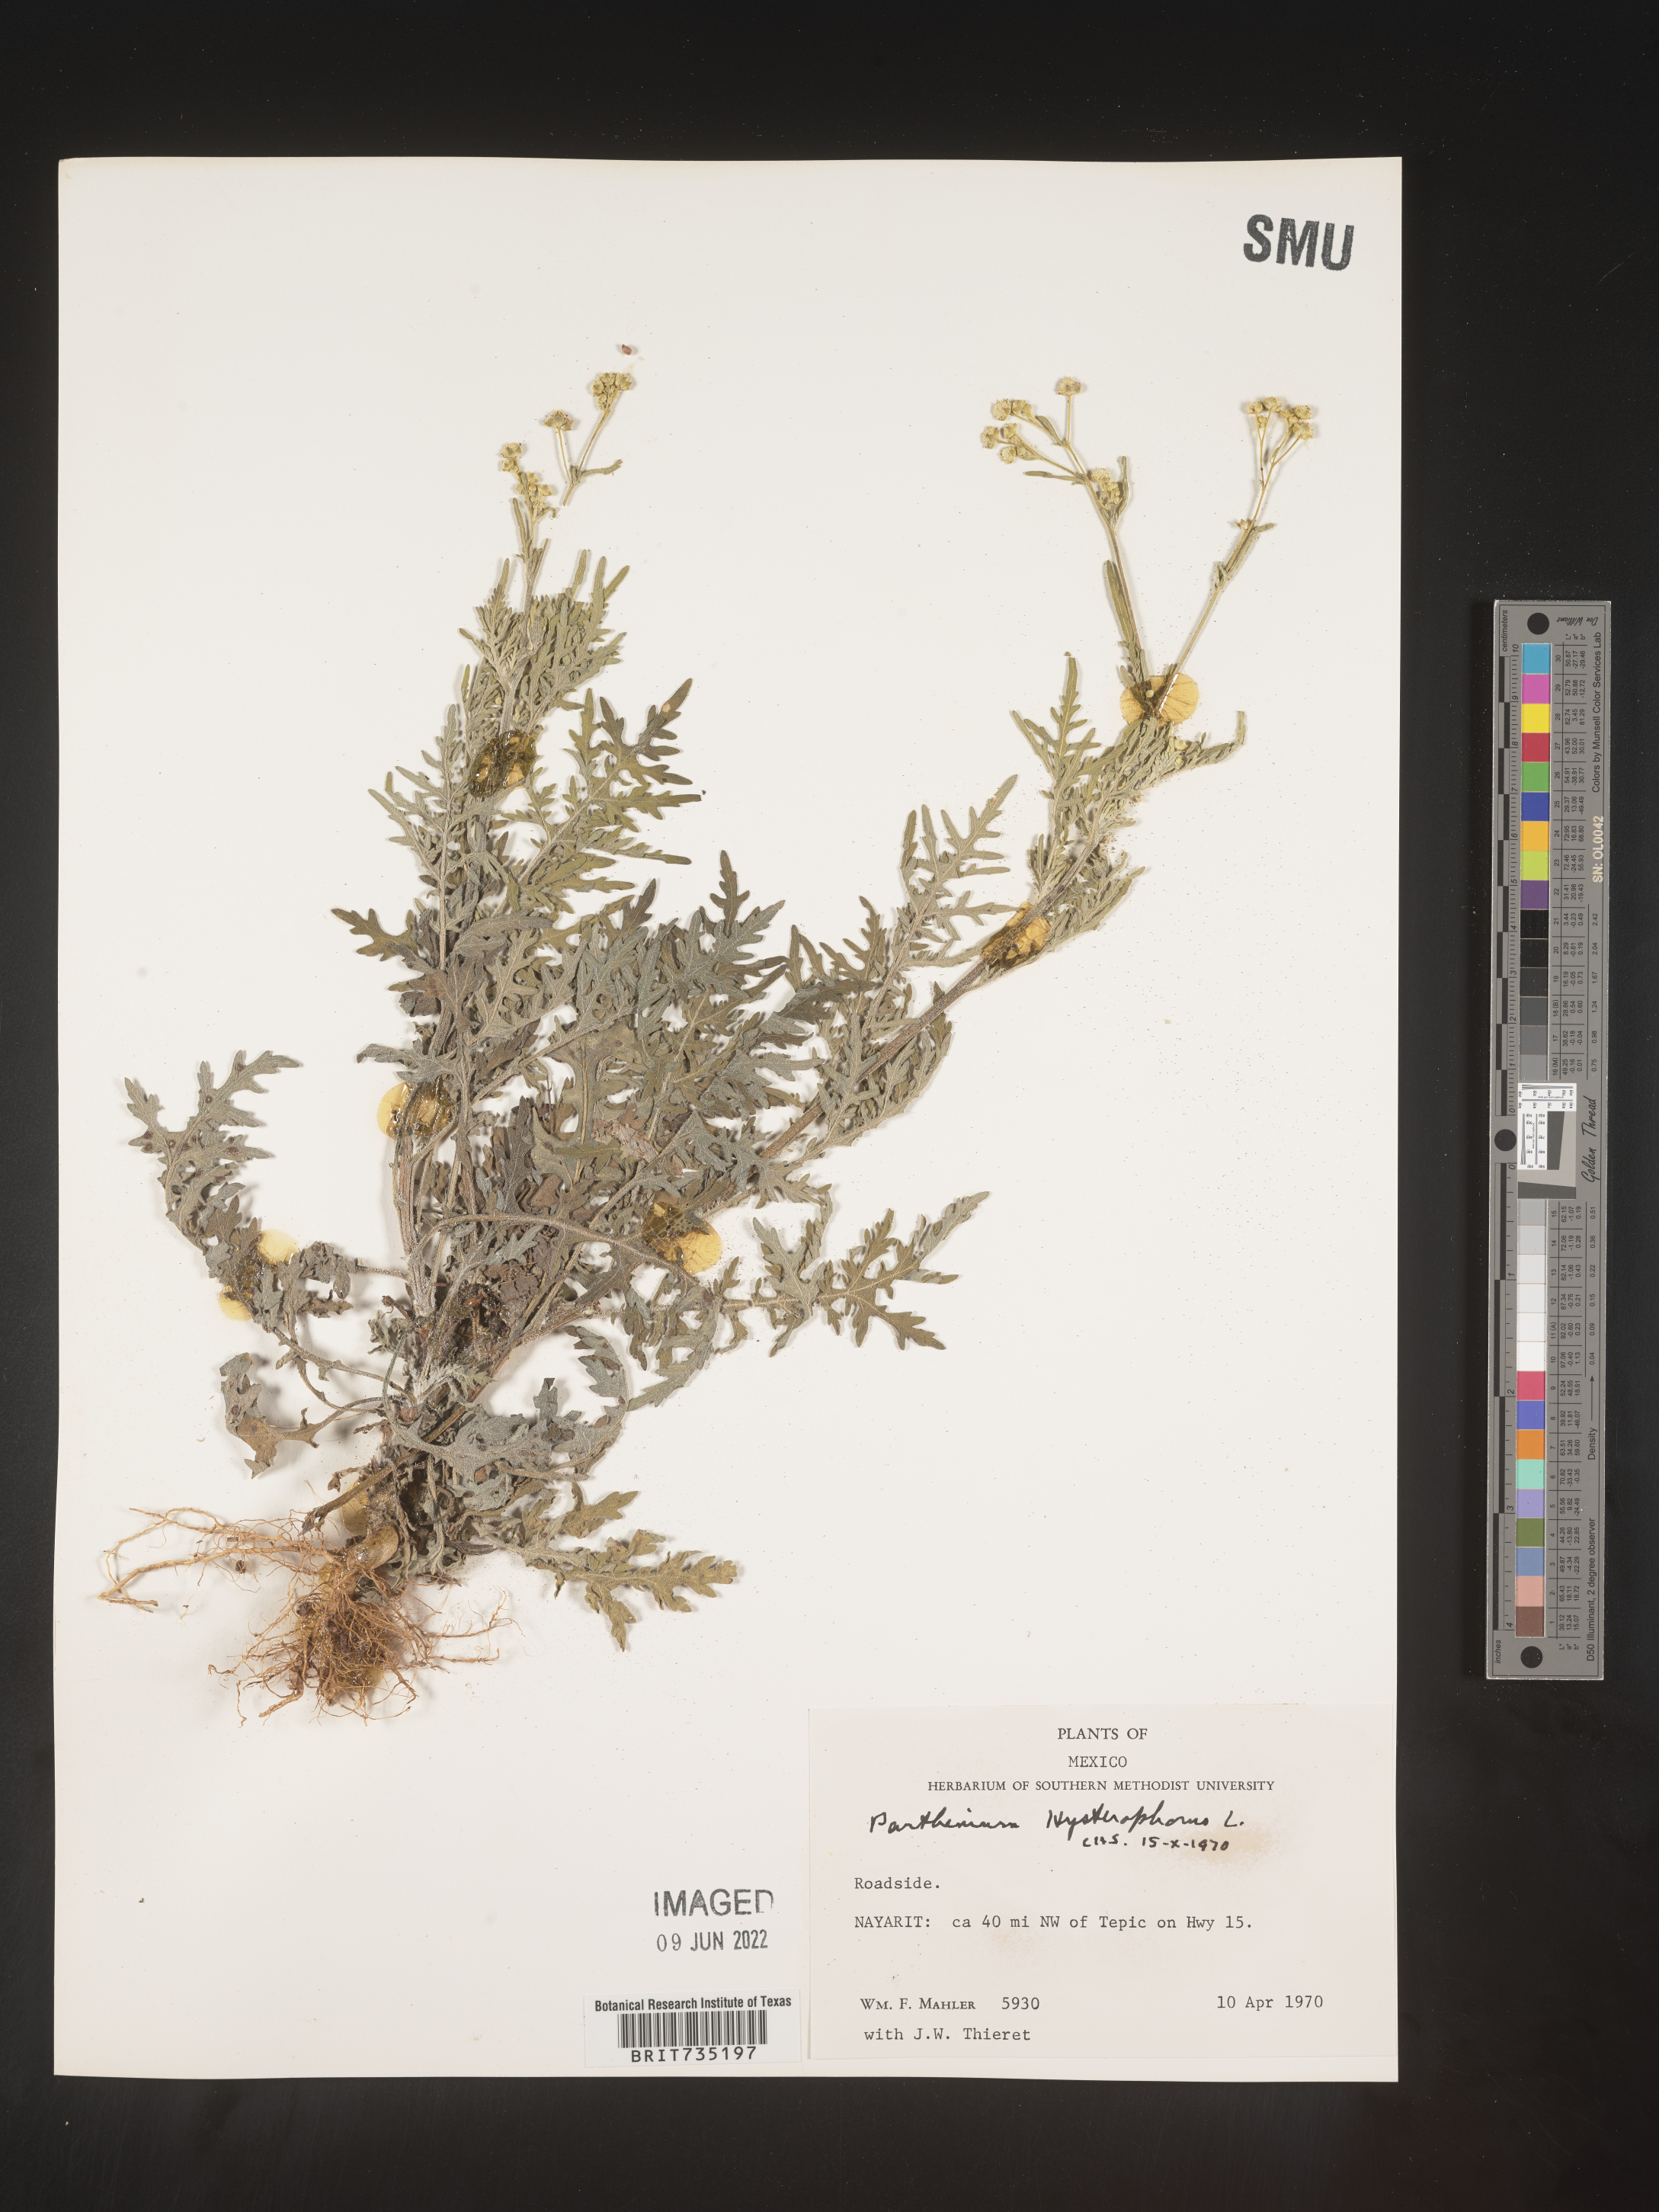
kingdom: Plantae
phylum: Tracheophyta
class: Magnoliopsida
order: Asterales
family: Asteraceae
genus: Parthenium
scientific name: Parthenium hysterophorus
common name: Santa maria feverfew
